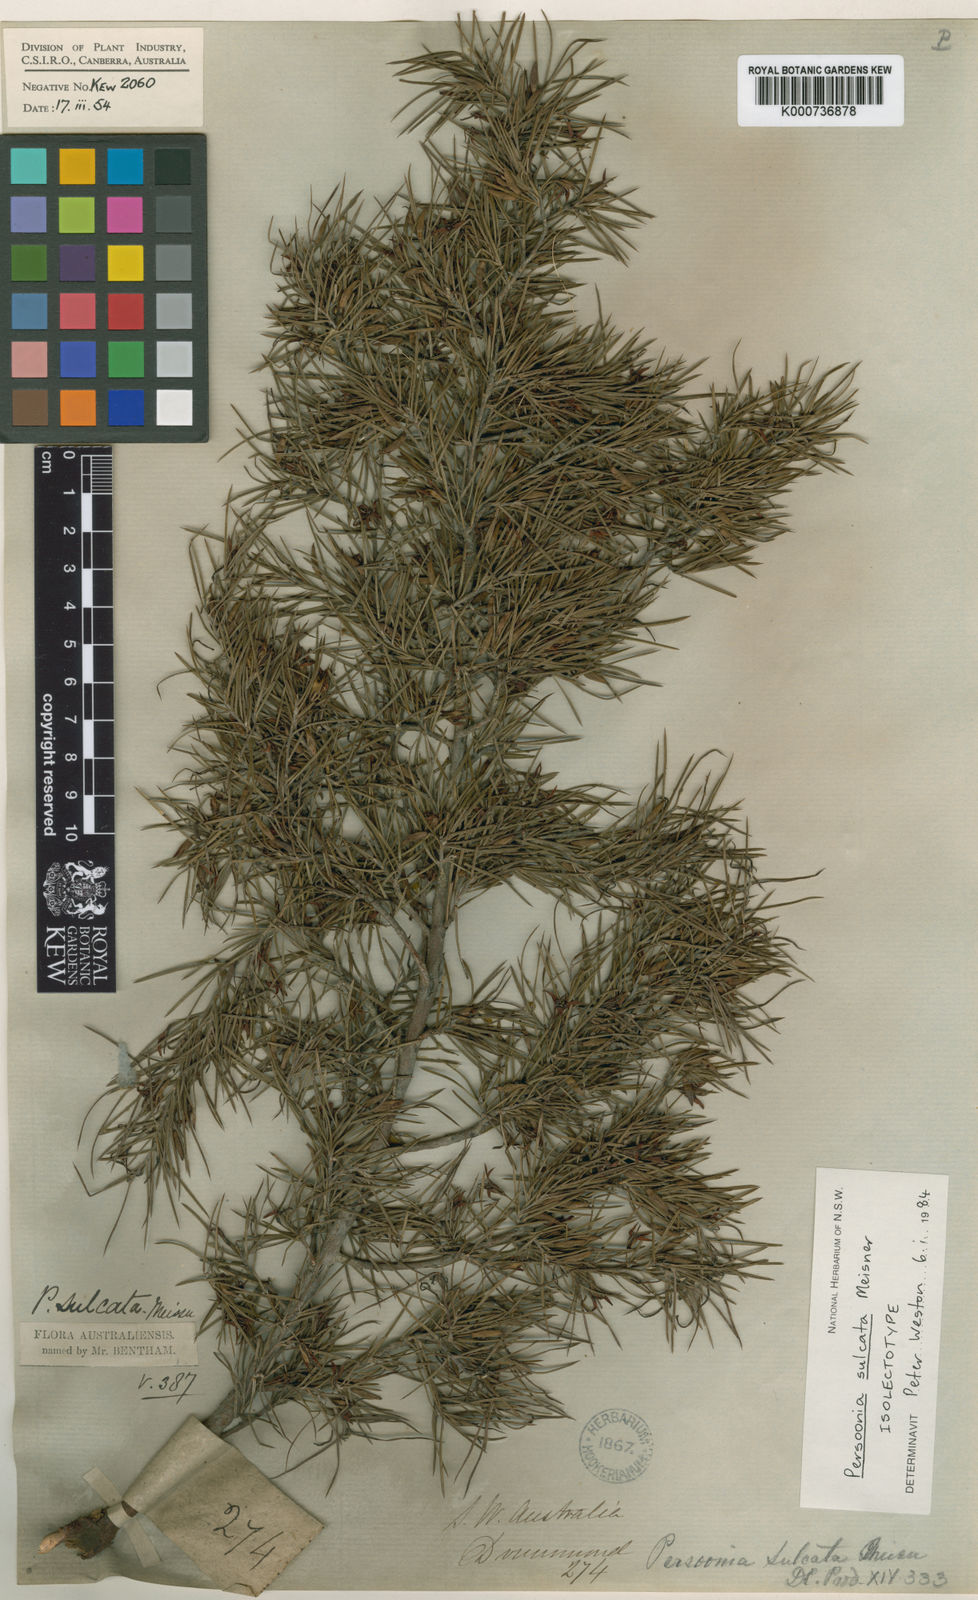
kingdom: Plantae
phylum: Tracheophyta
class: Magnoliopsida
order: Proteales
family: Proteaceae
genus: Persoonia
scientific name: Persoonia sulcata
